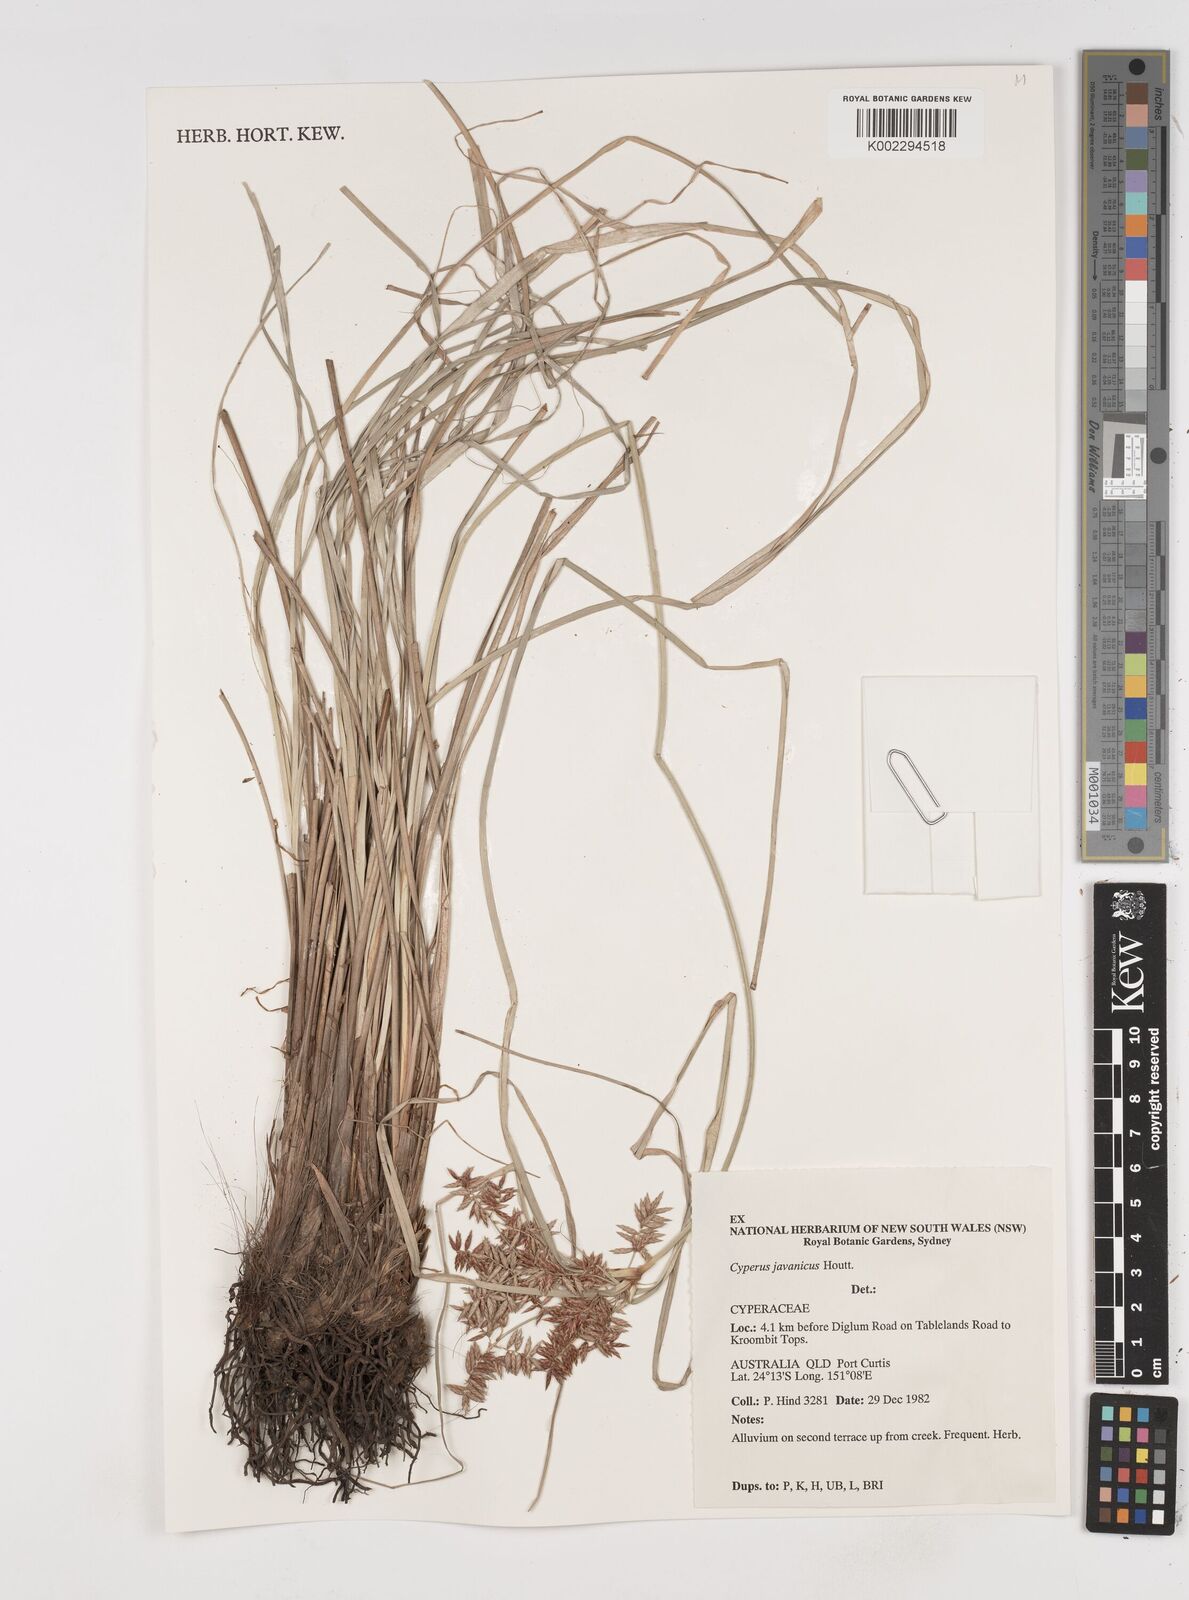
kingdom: Plantae
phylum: Tracheophyta
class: Liliopsida
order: Poales
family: Cyperaceae
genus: Cyperus
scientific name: Cyperus javanicus
